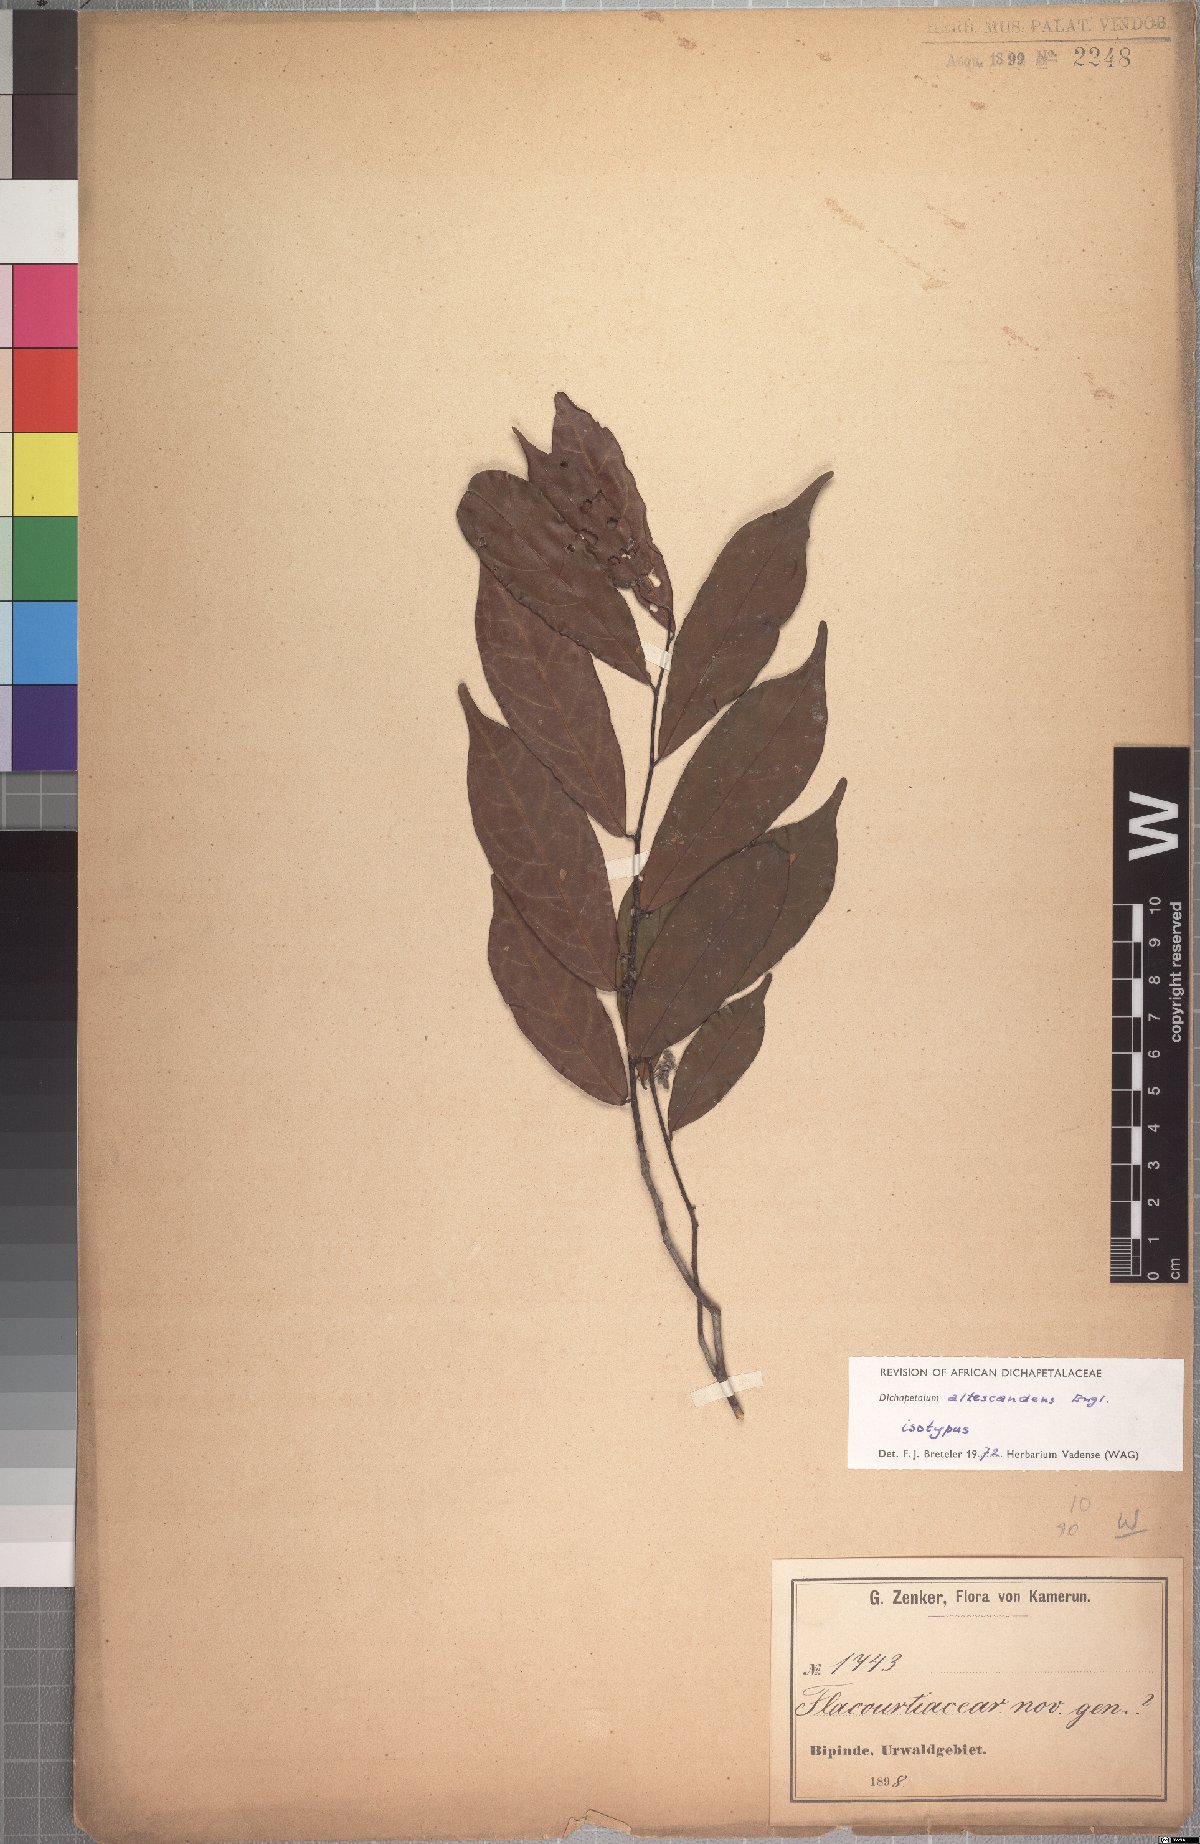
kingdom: Plantae
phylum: Tracheophyta
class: Magnoliopsida
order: Malpighiales
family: Dichapetalaceae
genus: Dichapetalum
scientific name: Dichapetalum altescandens
